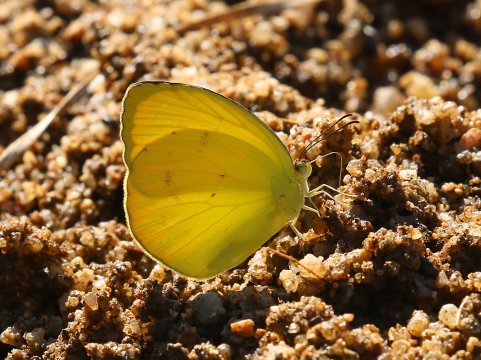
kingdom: Animalia
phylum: Arthropoda
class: Insecta
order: Lepidoptera
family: Pieridae
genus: Pyrisitia
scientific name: Pyrisitia dina
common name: Dina Yellow
